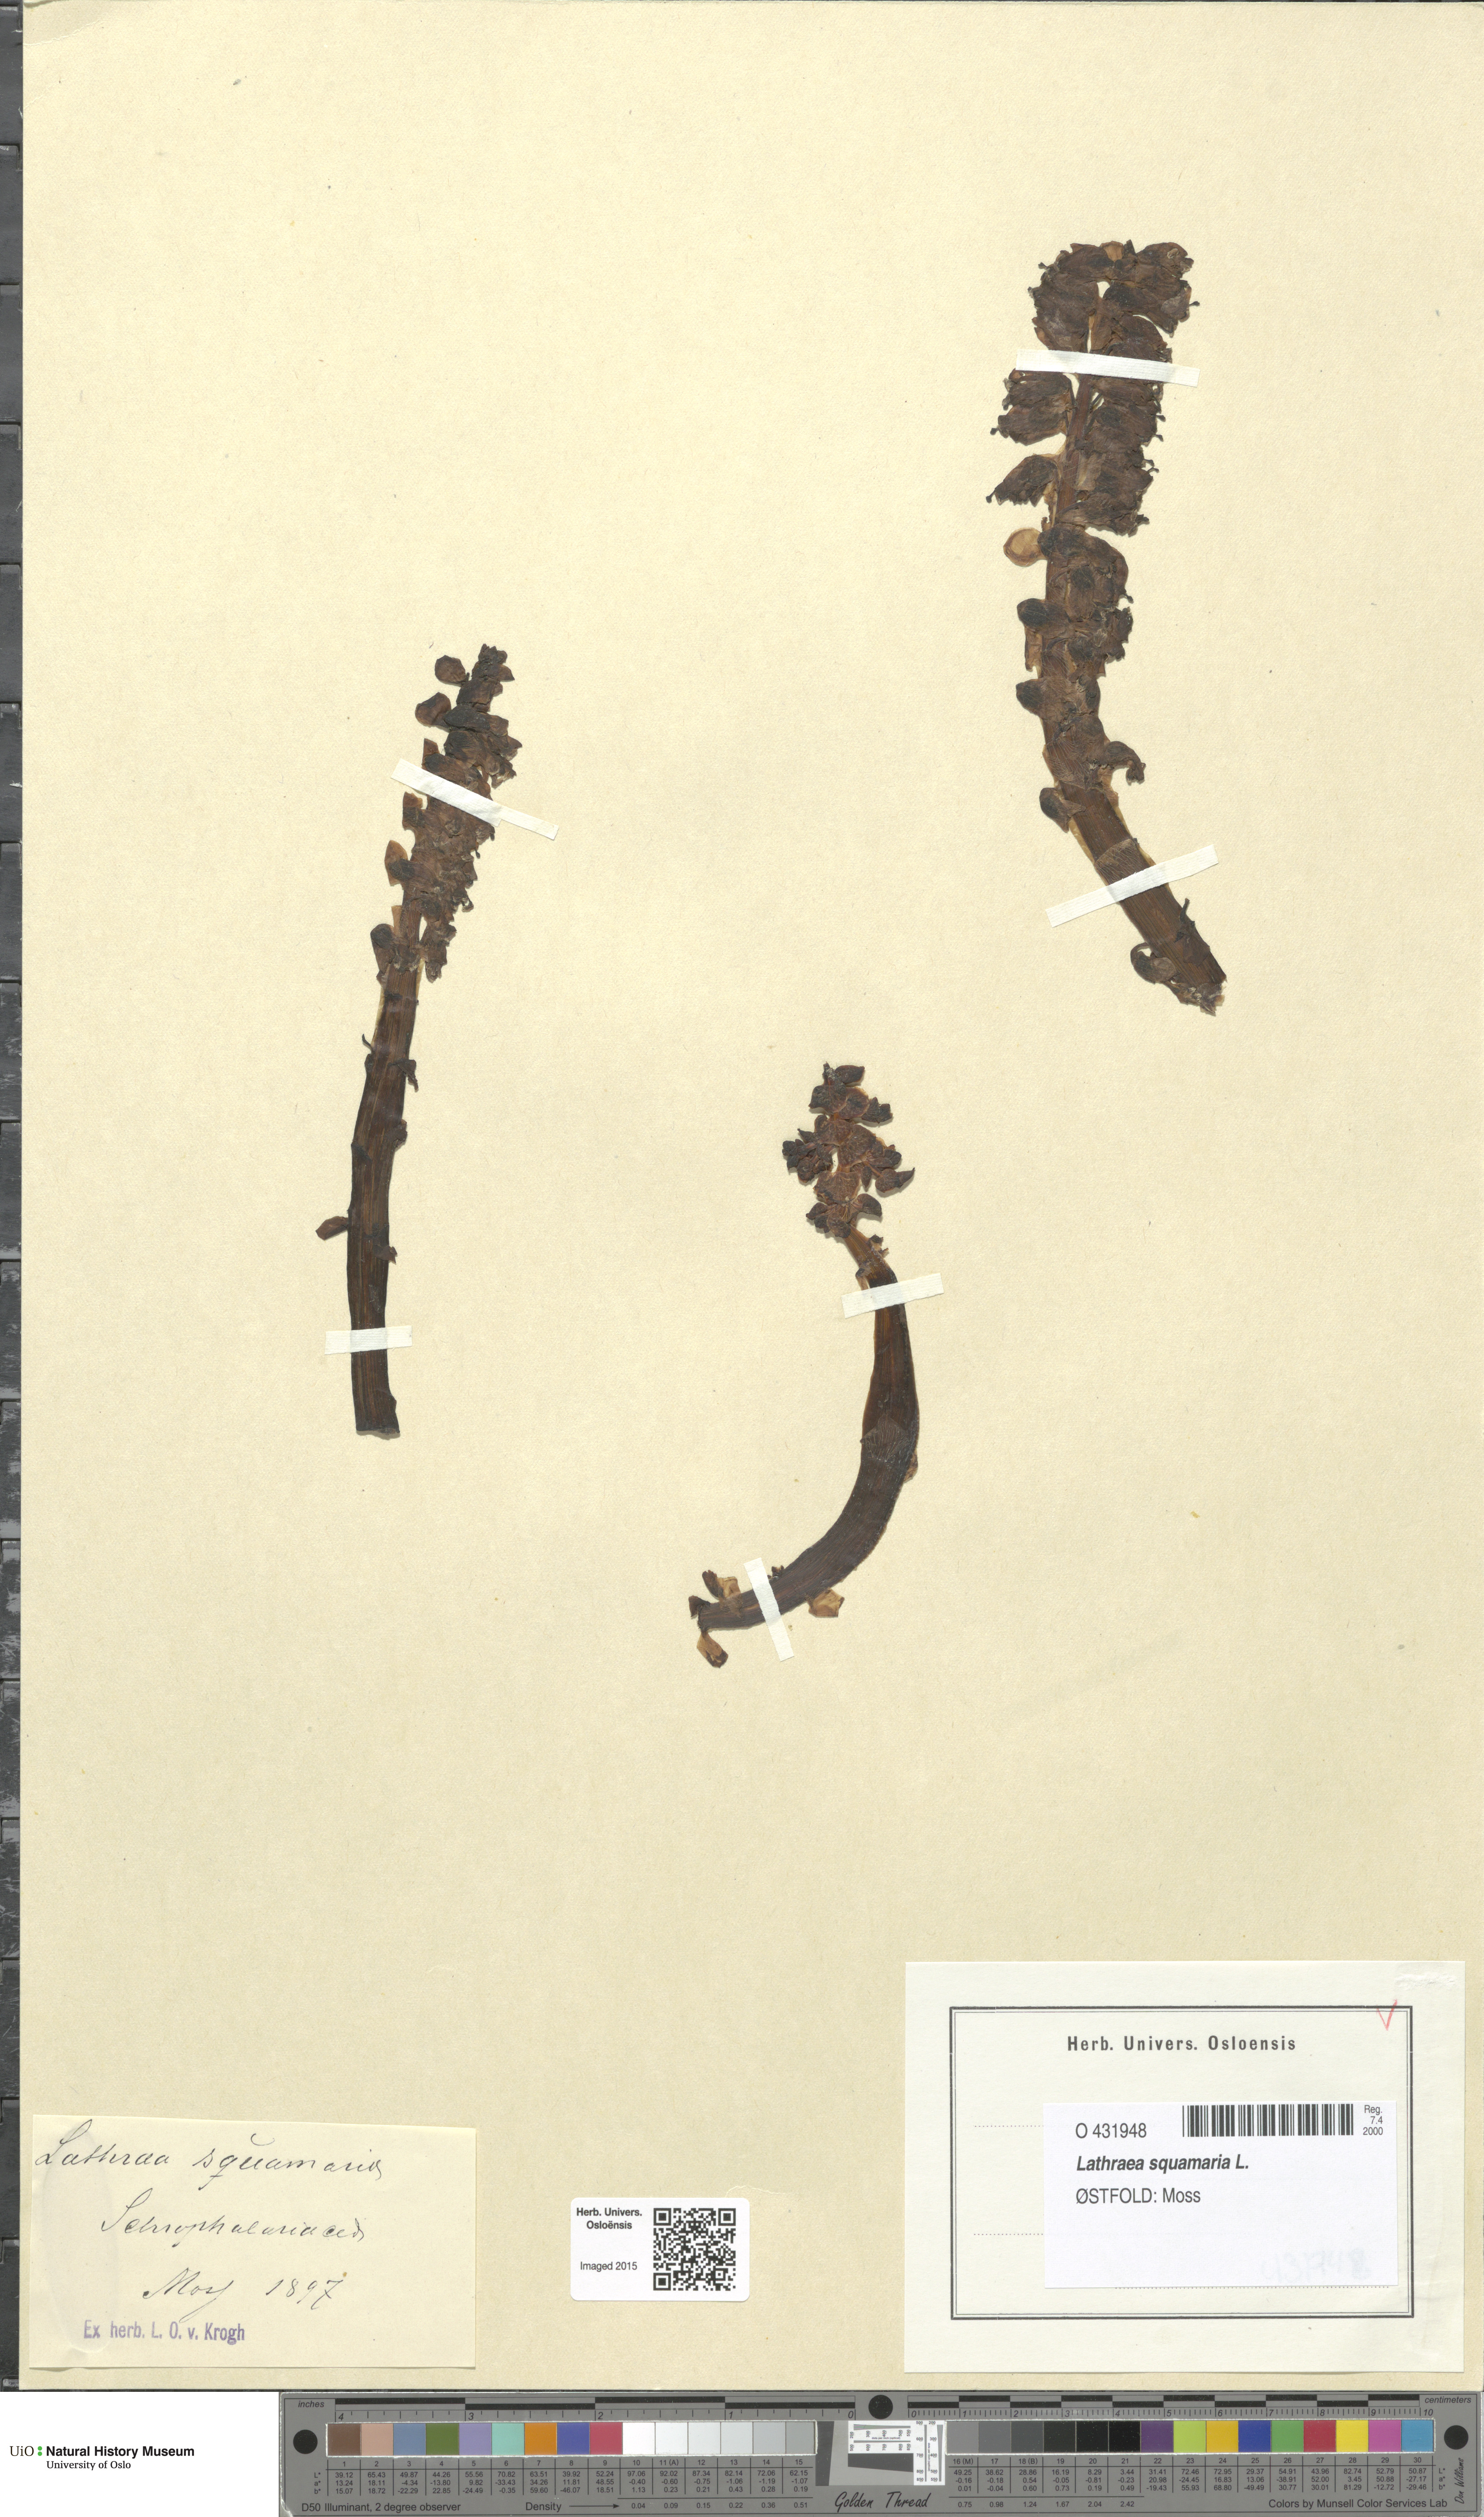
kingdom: Plantae
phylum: Tracheophyta
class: Magnoliopsida
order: Lamiales
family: Orobanchaceae
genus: Lathraea
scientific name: Lathraea squamaria
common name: Toothwort
